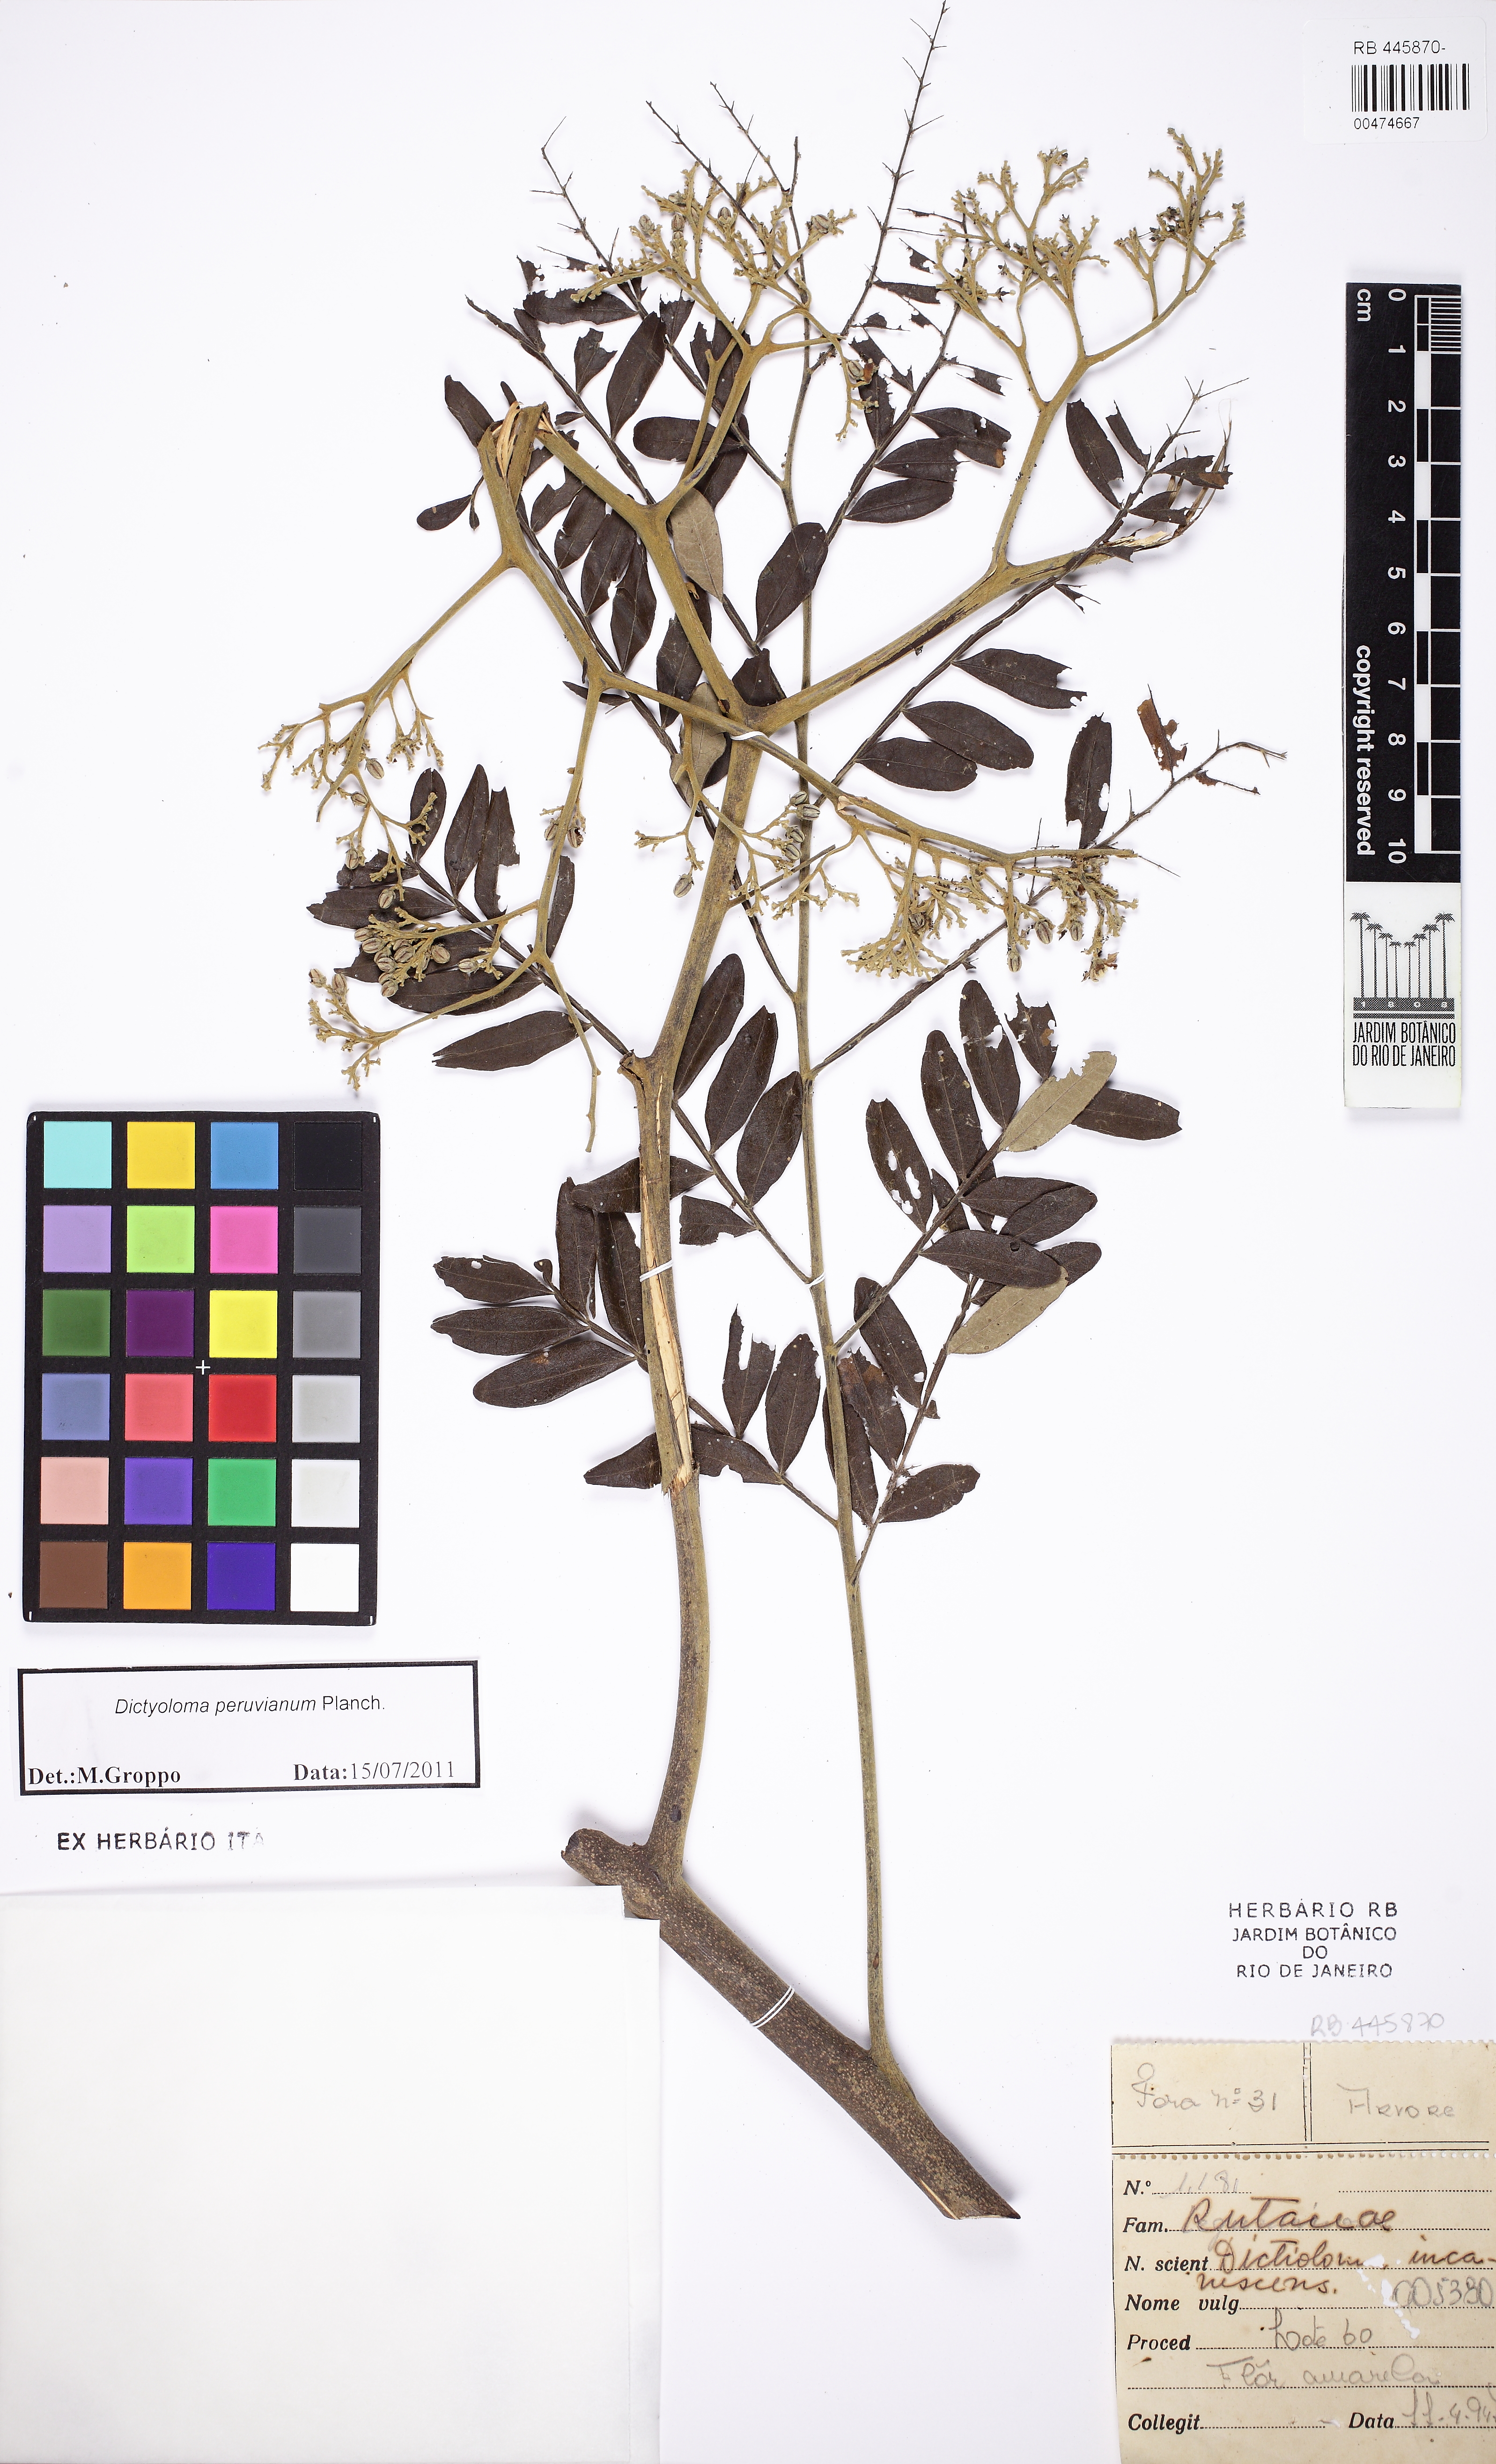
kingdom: Plantae
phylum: Tracheophyta
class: Magnoliopsida
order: Sapindales
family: Rutaceae
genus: Dictyoloma
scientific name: Dictyoloma vandellianum
